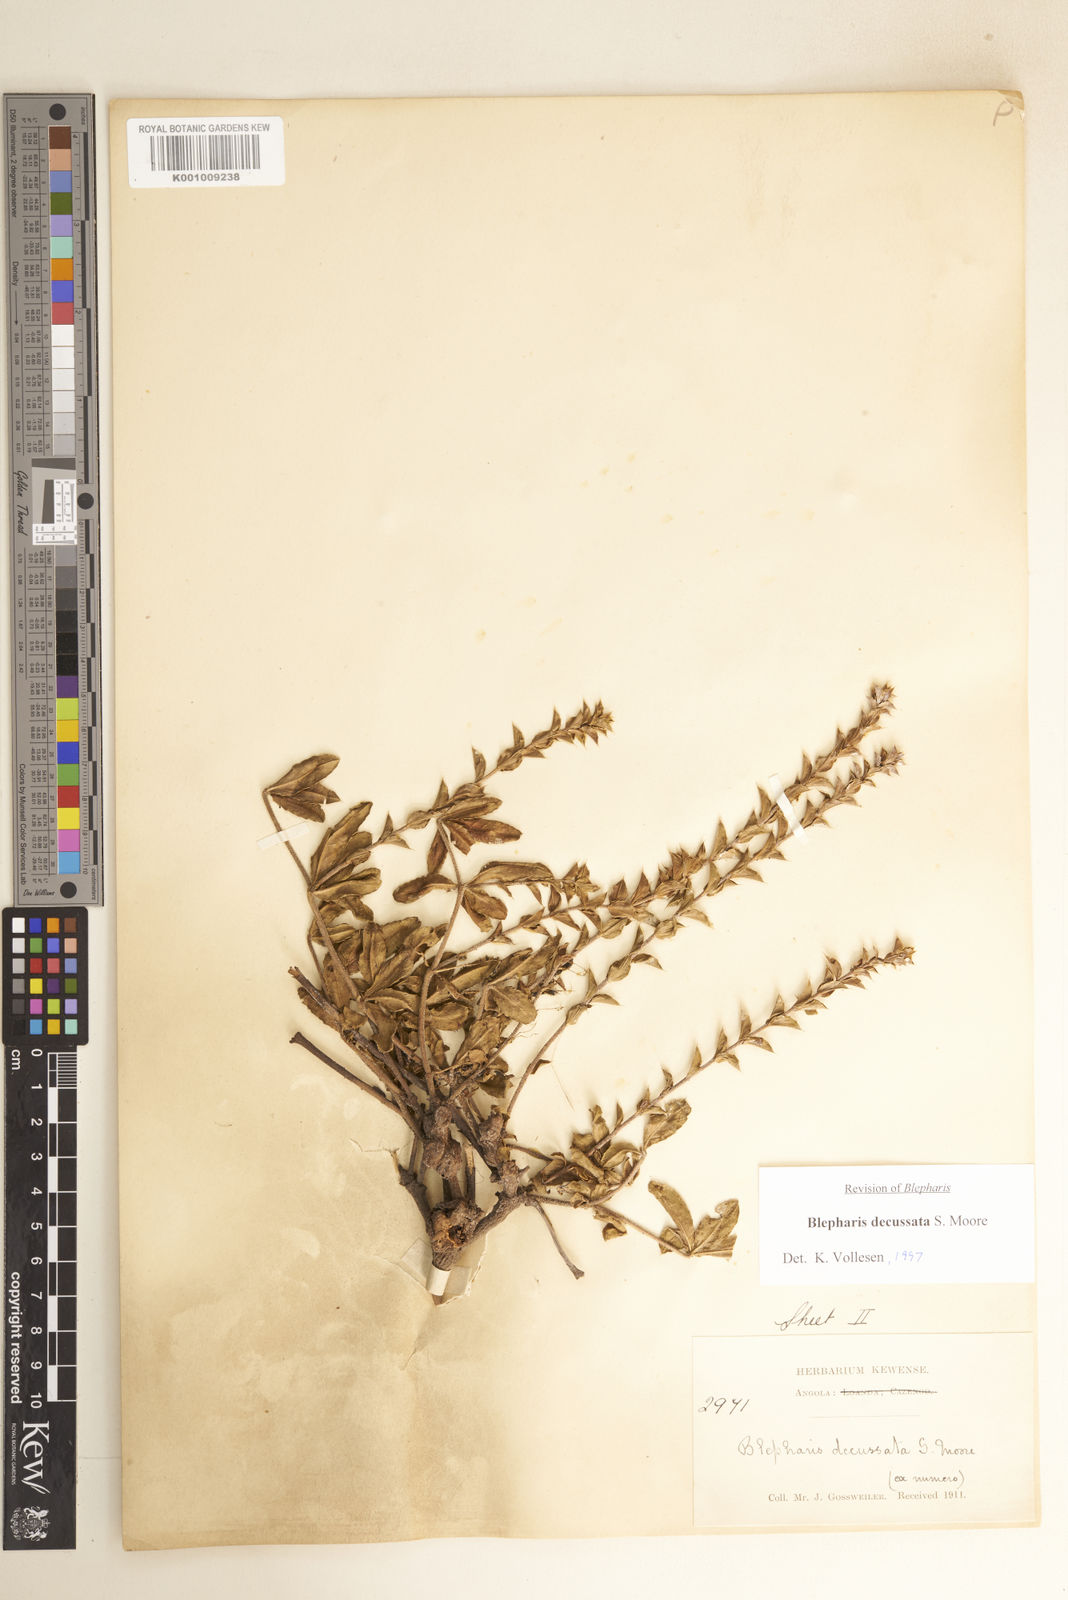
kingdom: Plantae
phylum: Tracheophyta
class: Magnoliopsida
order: Lamiales
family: Acanthaceae
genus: Blepharis
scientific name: Blepharis decussata
